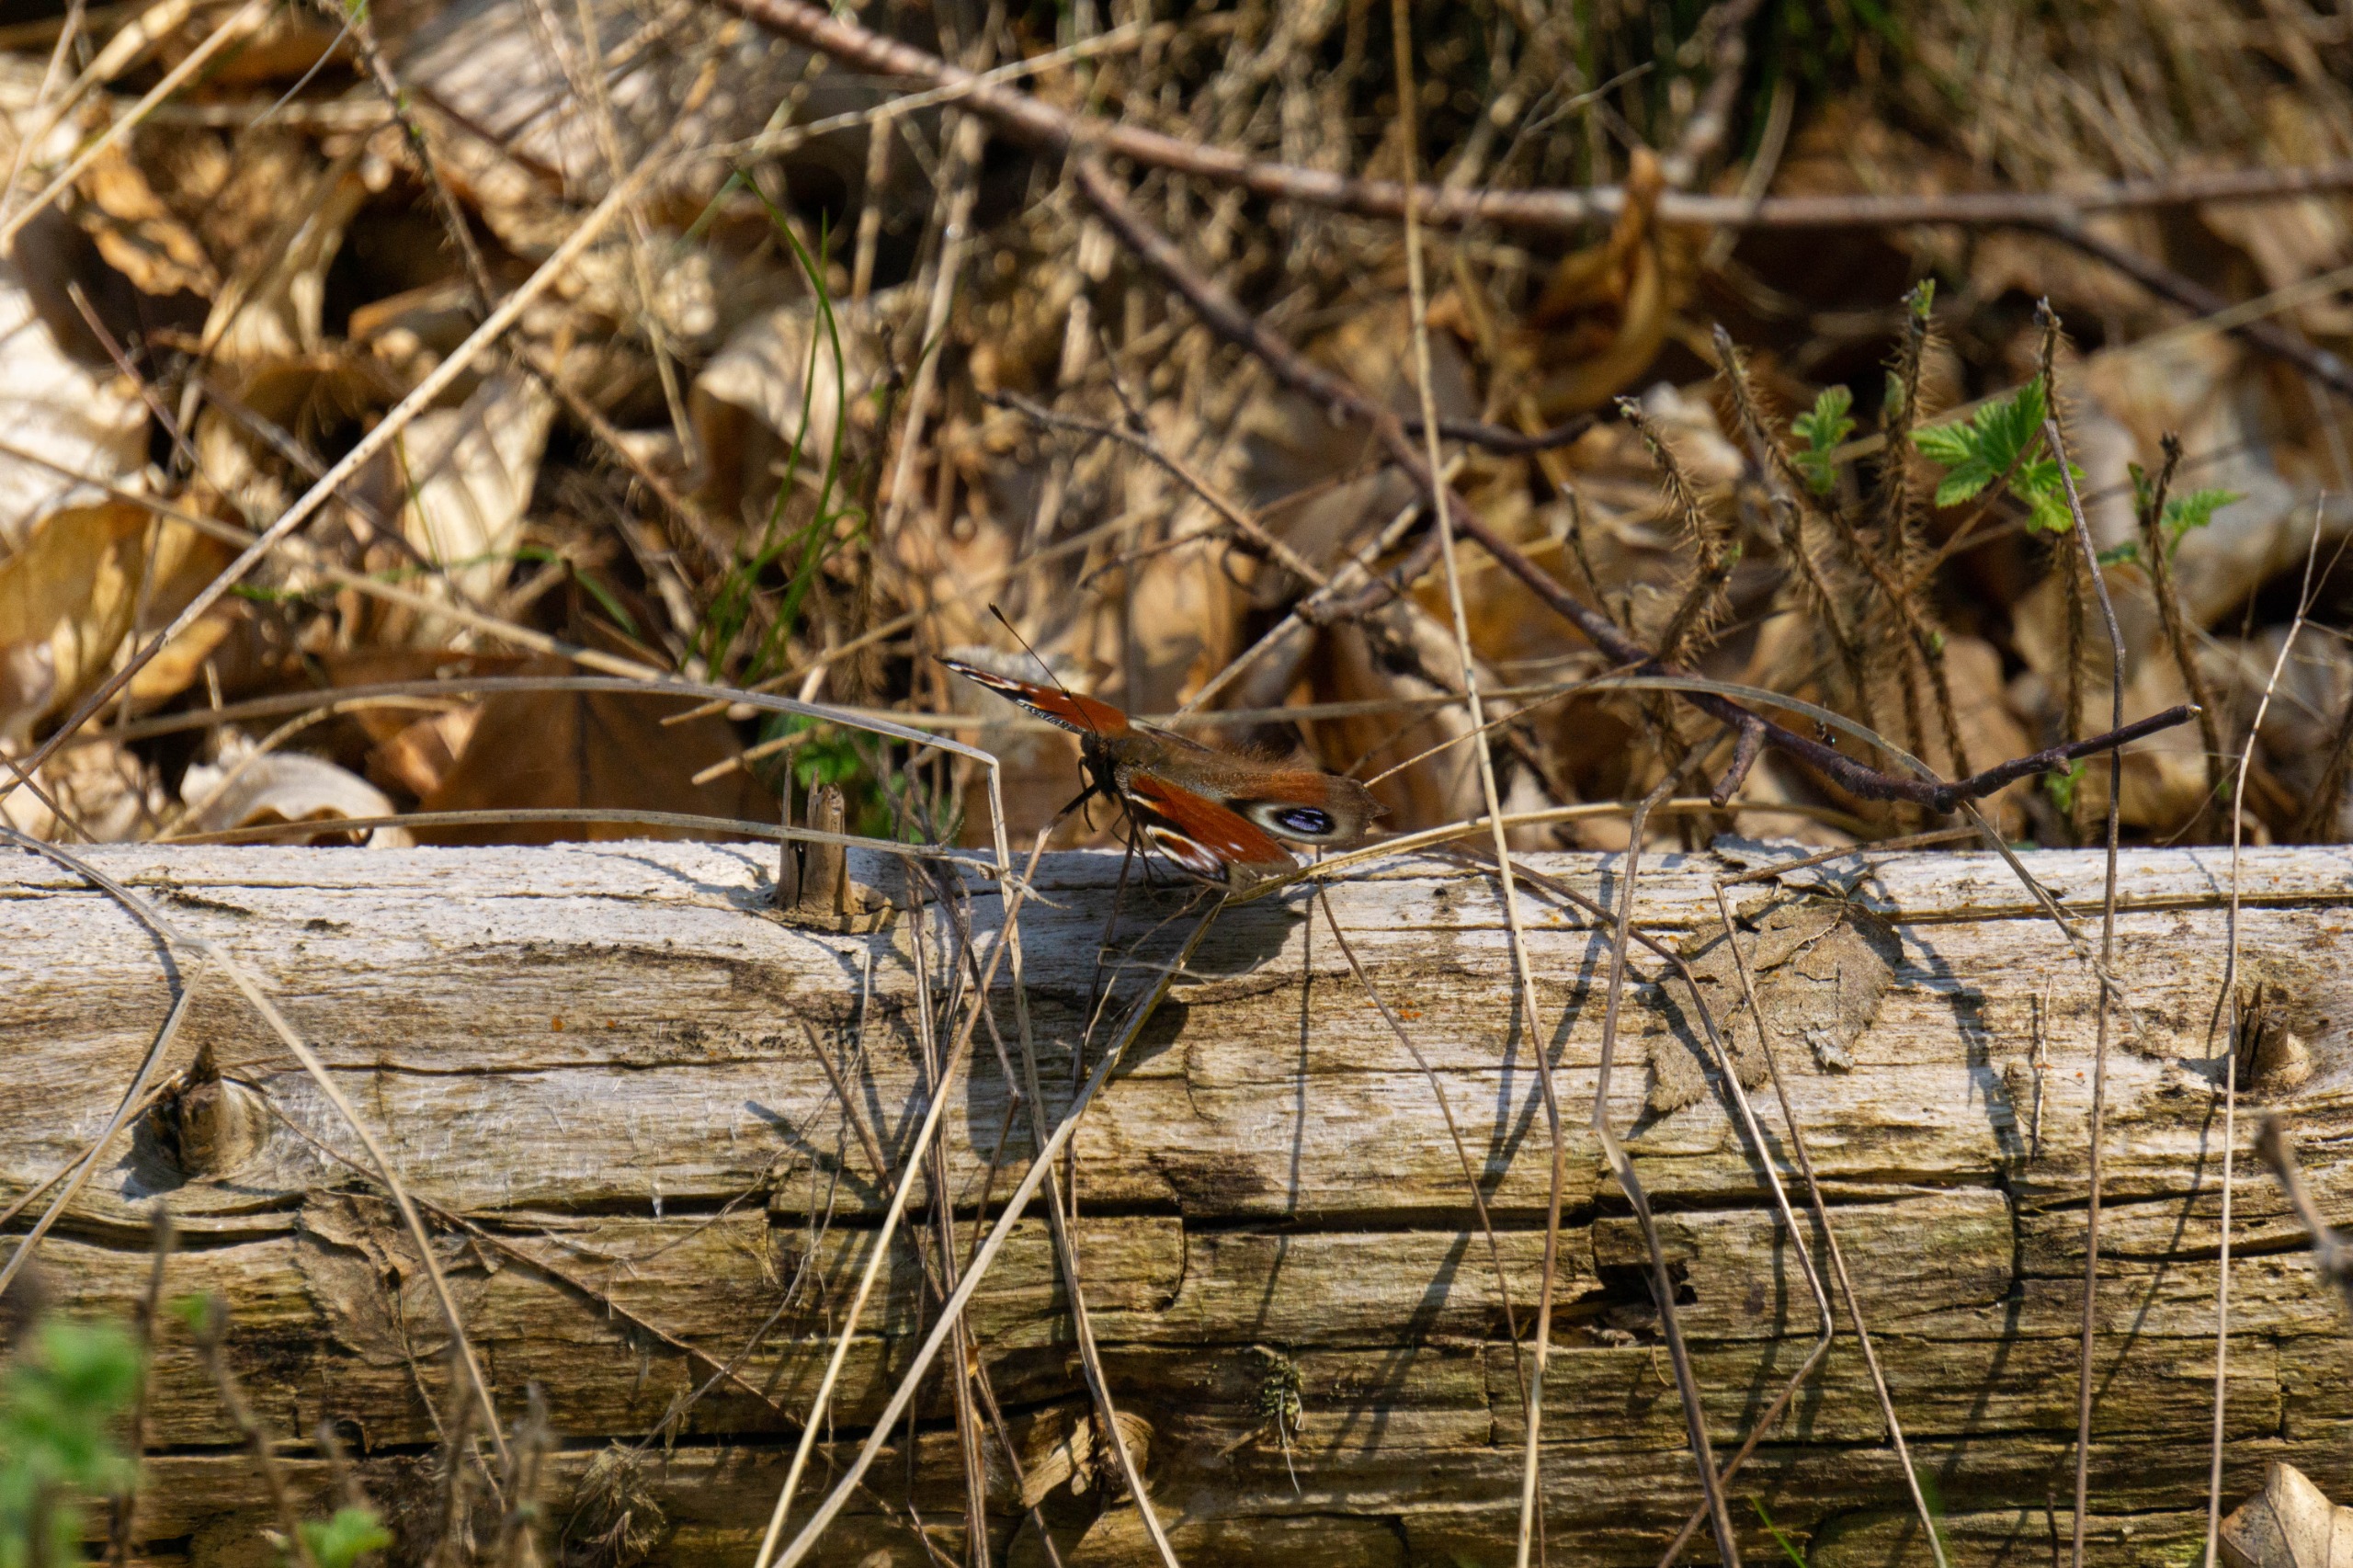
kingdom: Animalia
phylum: Arthropoda
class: Insecta
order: Lepidoptera
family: Nymphalidae
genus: Aglais
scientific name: Aglais io
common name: Dagpåfugleøje
